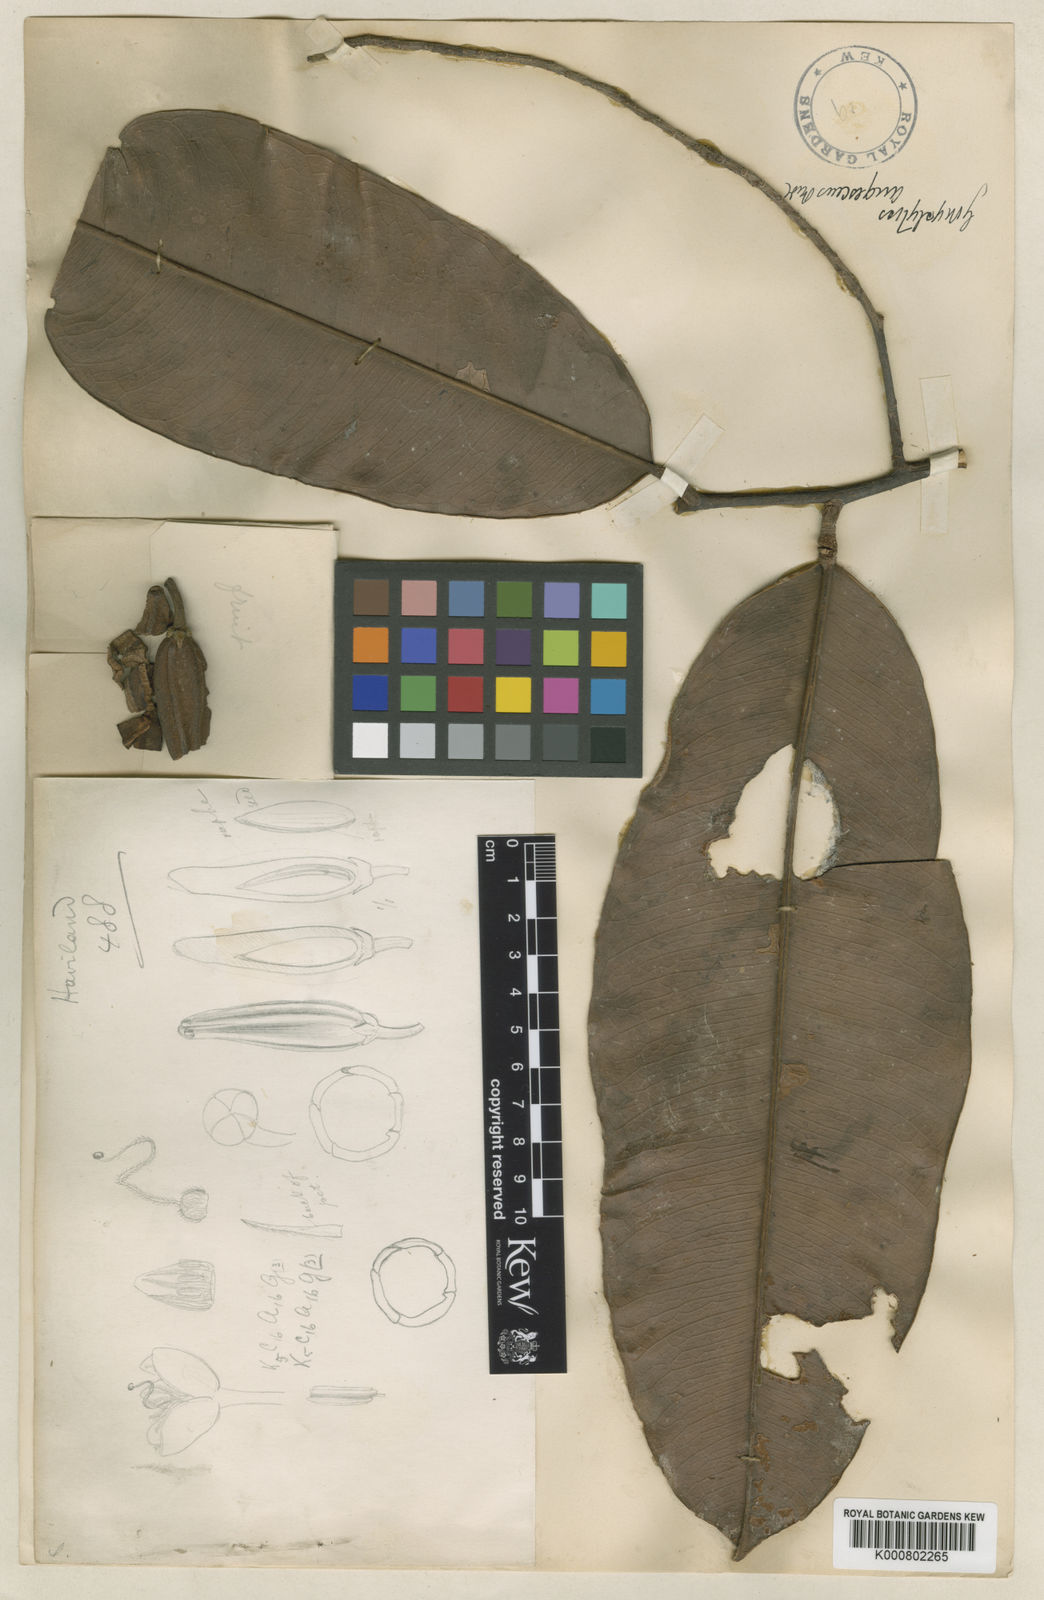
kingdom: Plantae
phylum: Tracheophyta
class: Magnoliopsida
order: Malvales
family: Thymelaeaceae
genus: Gonystylus
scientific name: Gonystylus augescens
